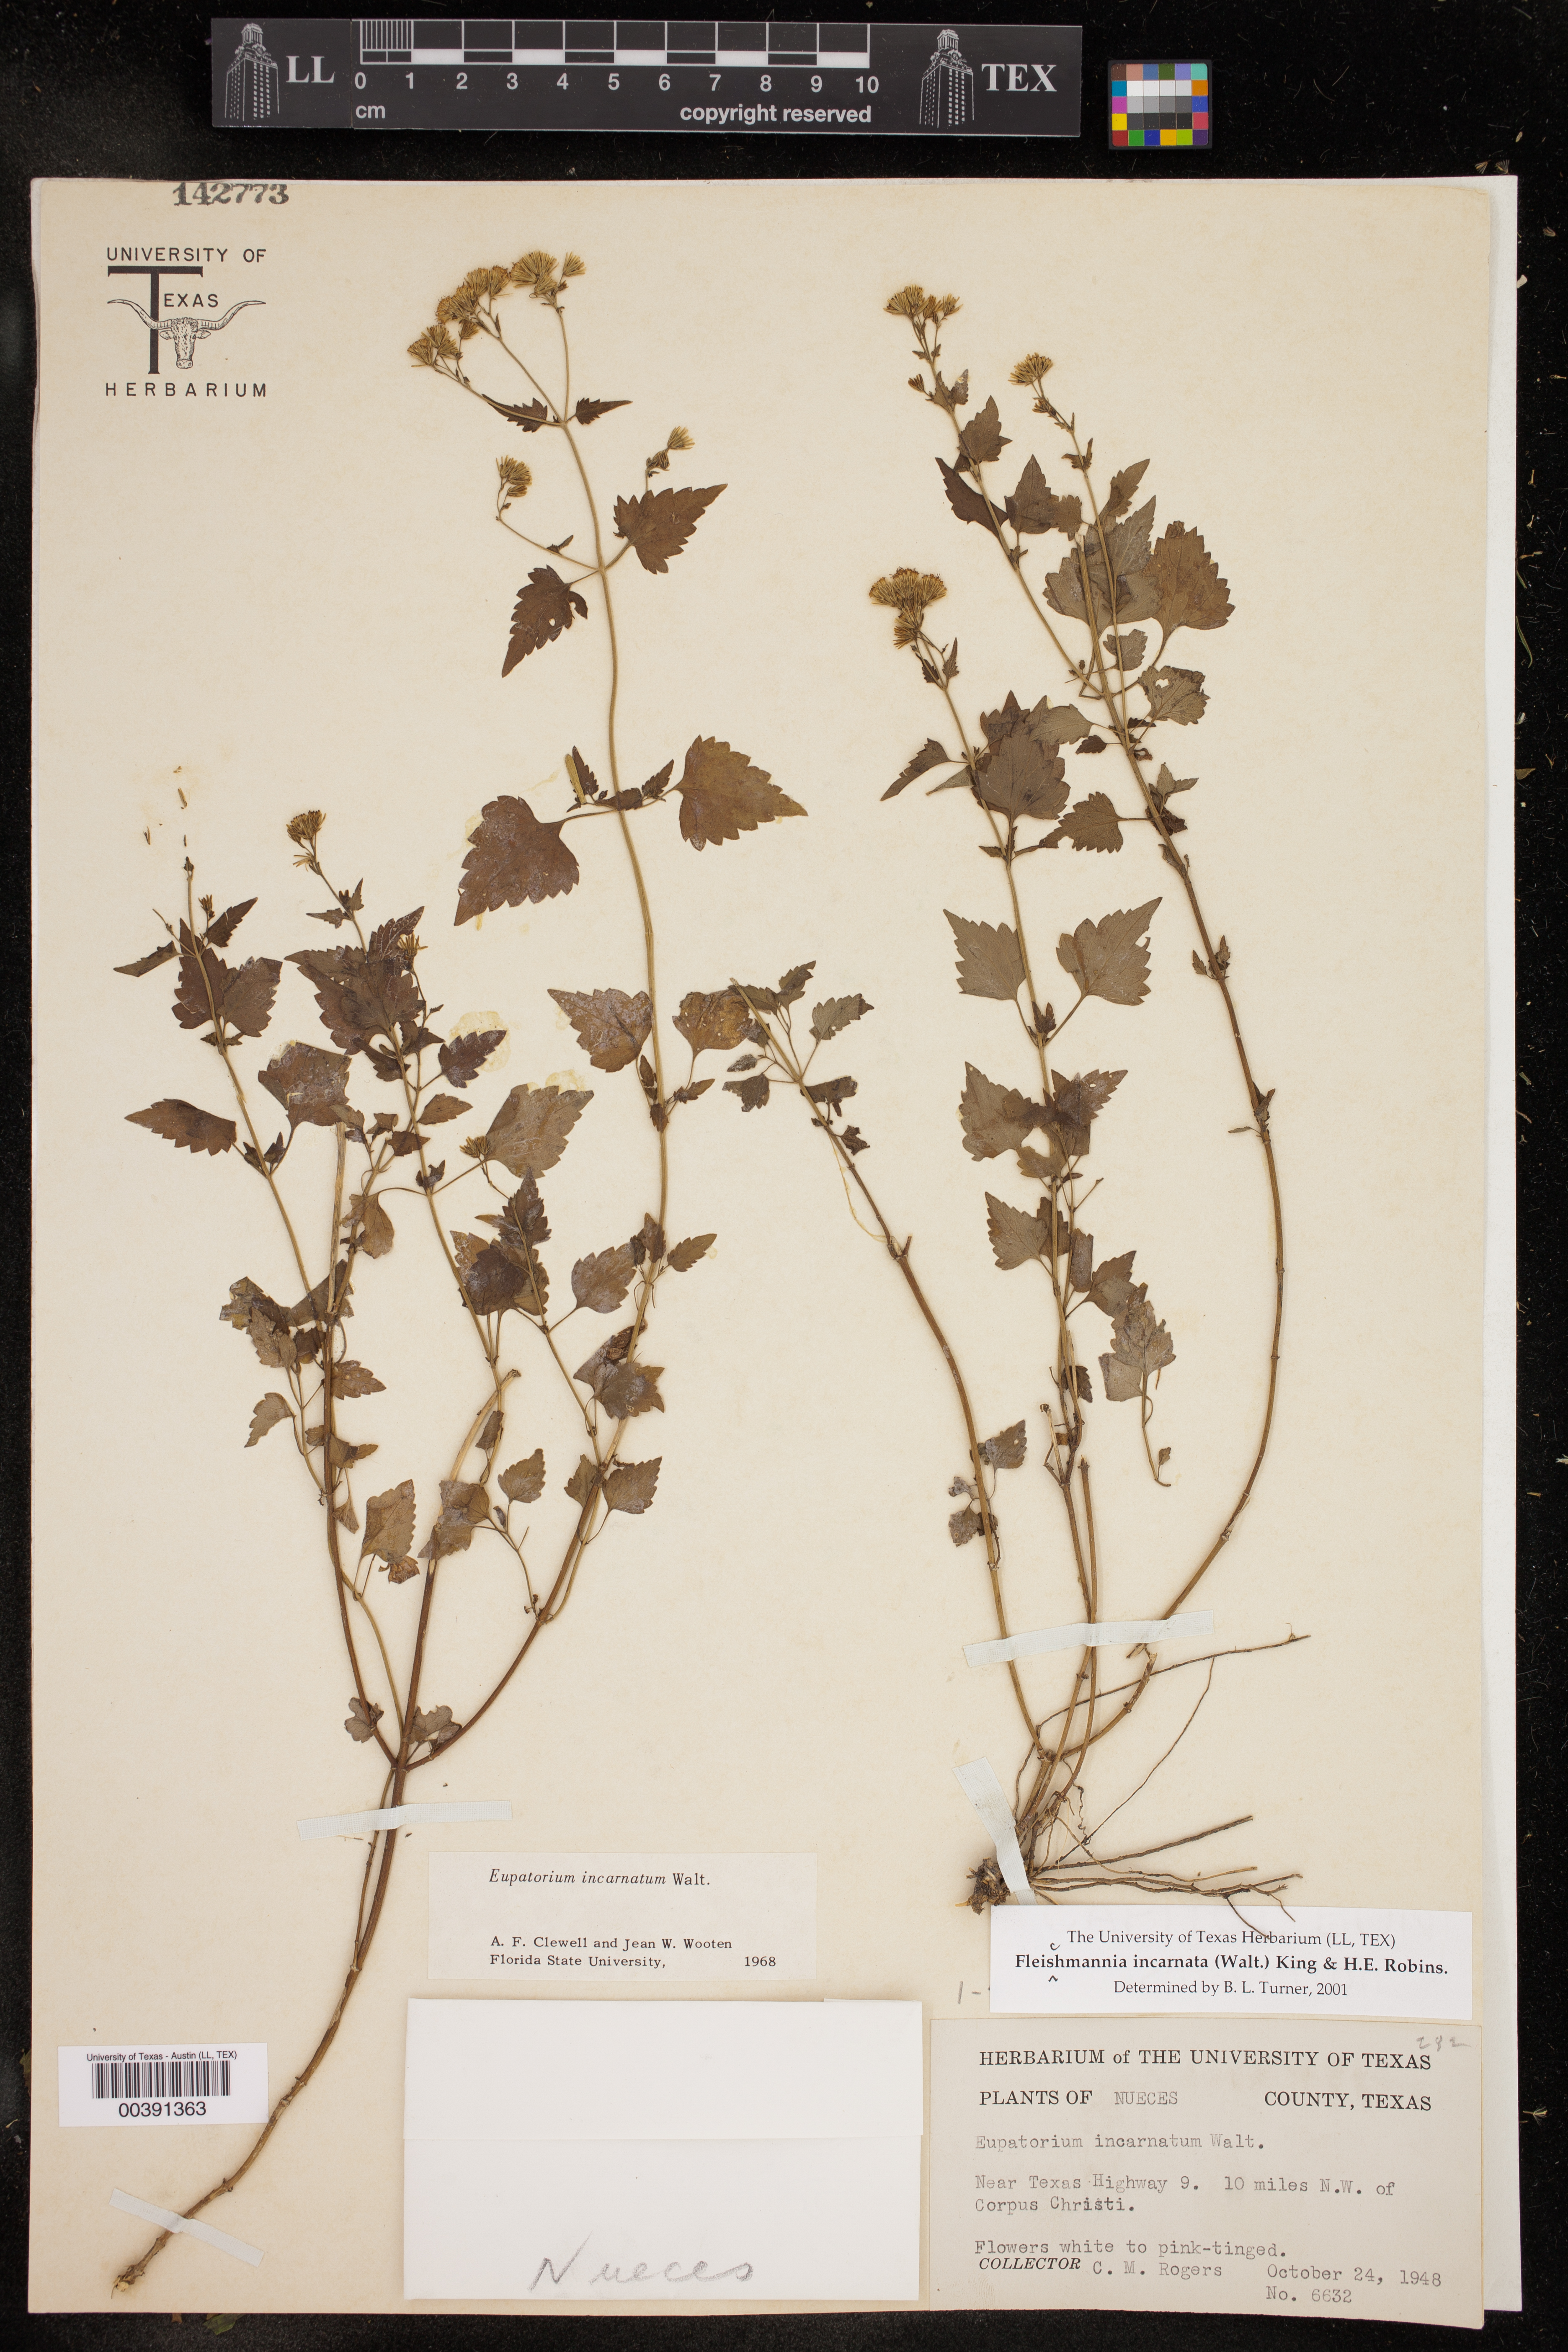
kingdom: Plantae
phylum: Tracheophyta
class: Magnoliopsida
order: Asterales
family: Asteraceae
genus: Fleischmannia
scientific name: Fleischmannia incarnata
